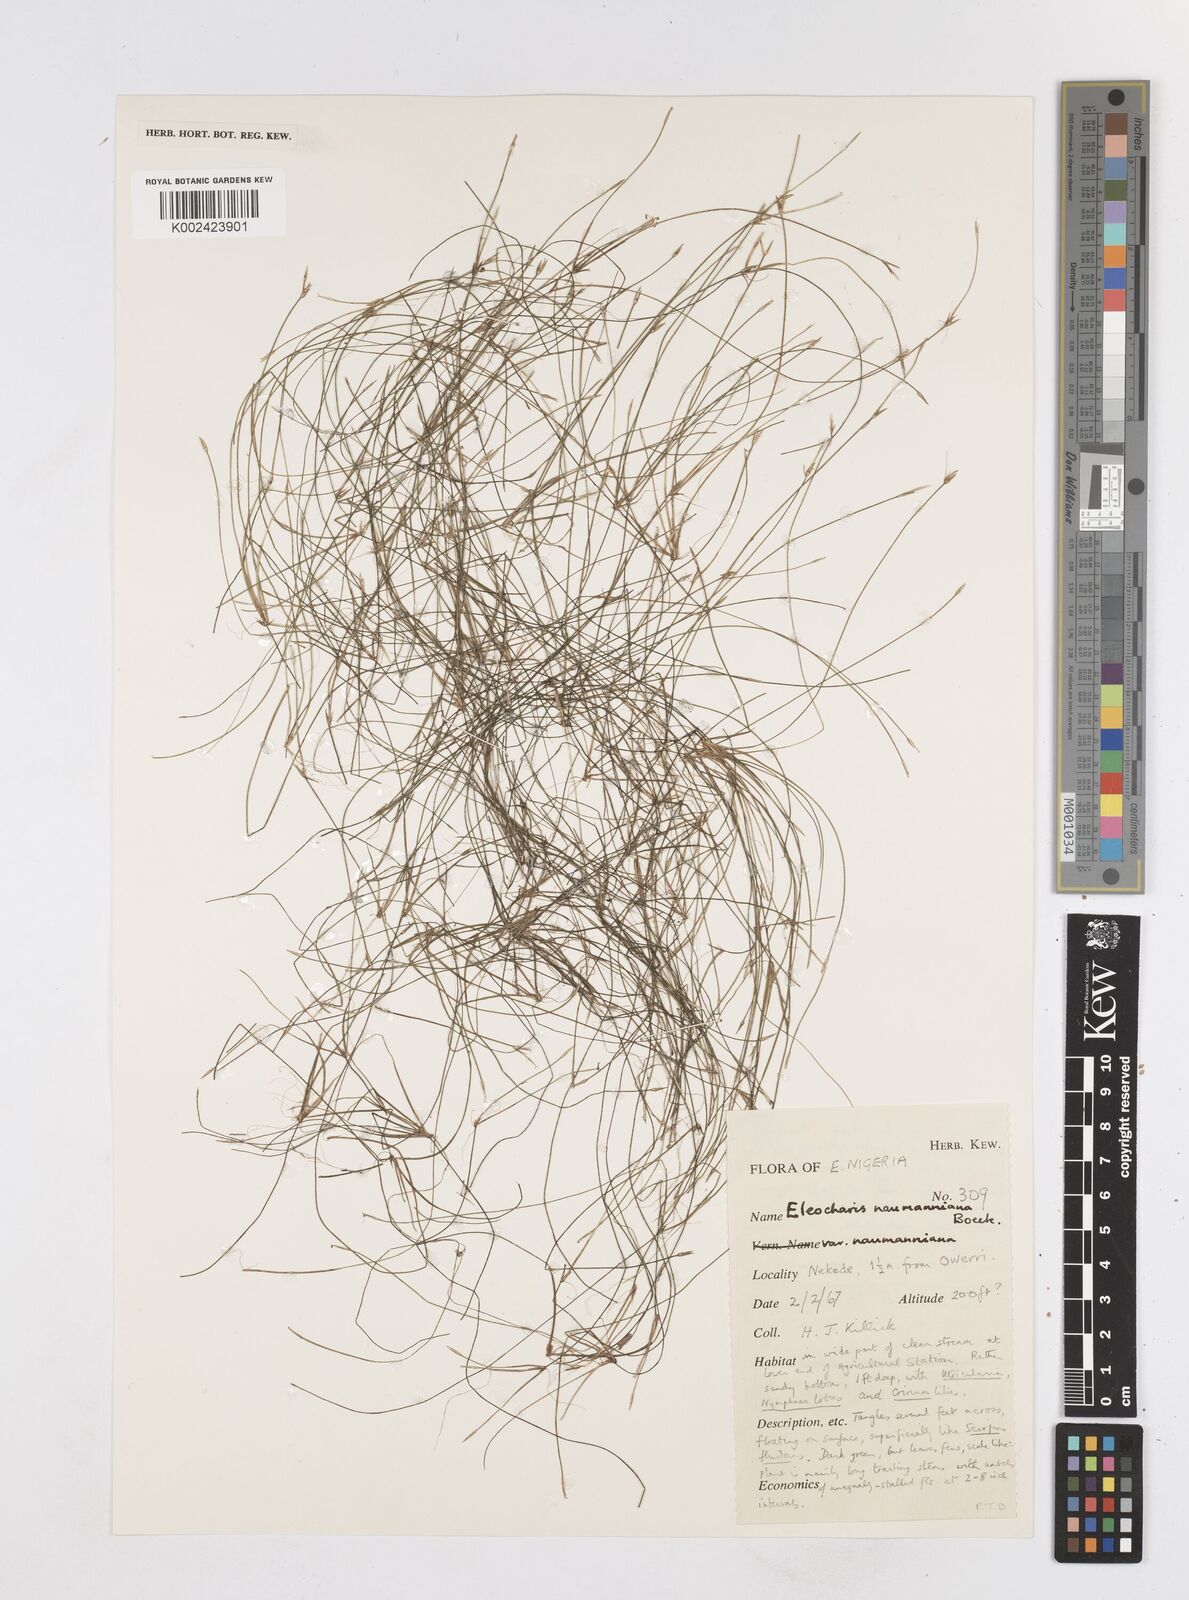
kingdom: Plantae
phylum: Tracheophyta
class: Liliopsida
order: Poales
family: Cyperaceae
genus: Eleocharis
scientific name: Eleocharis naumanniana
